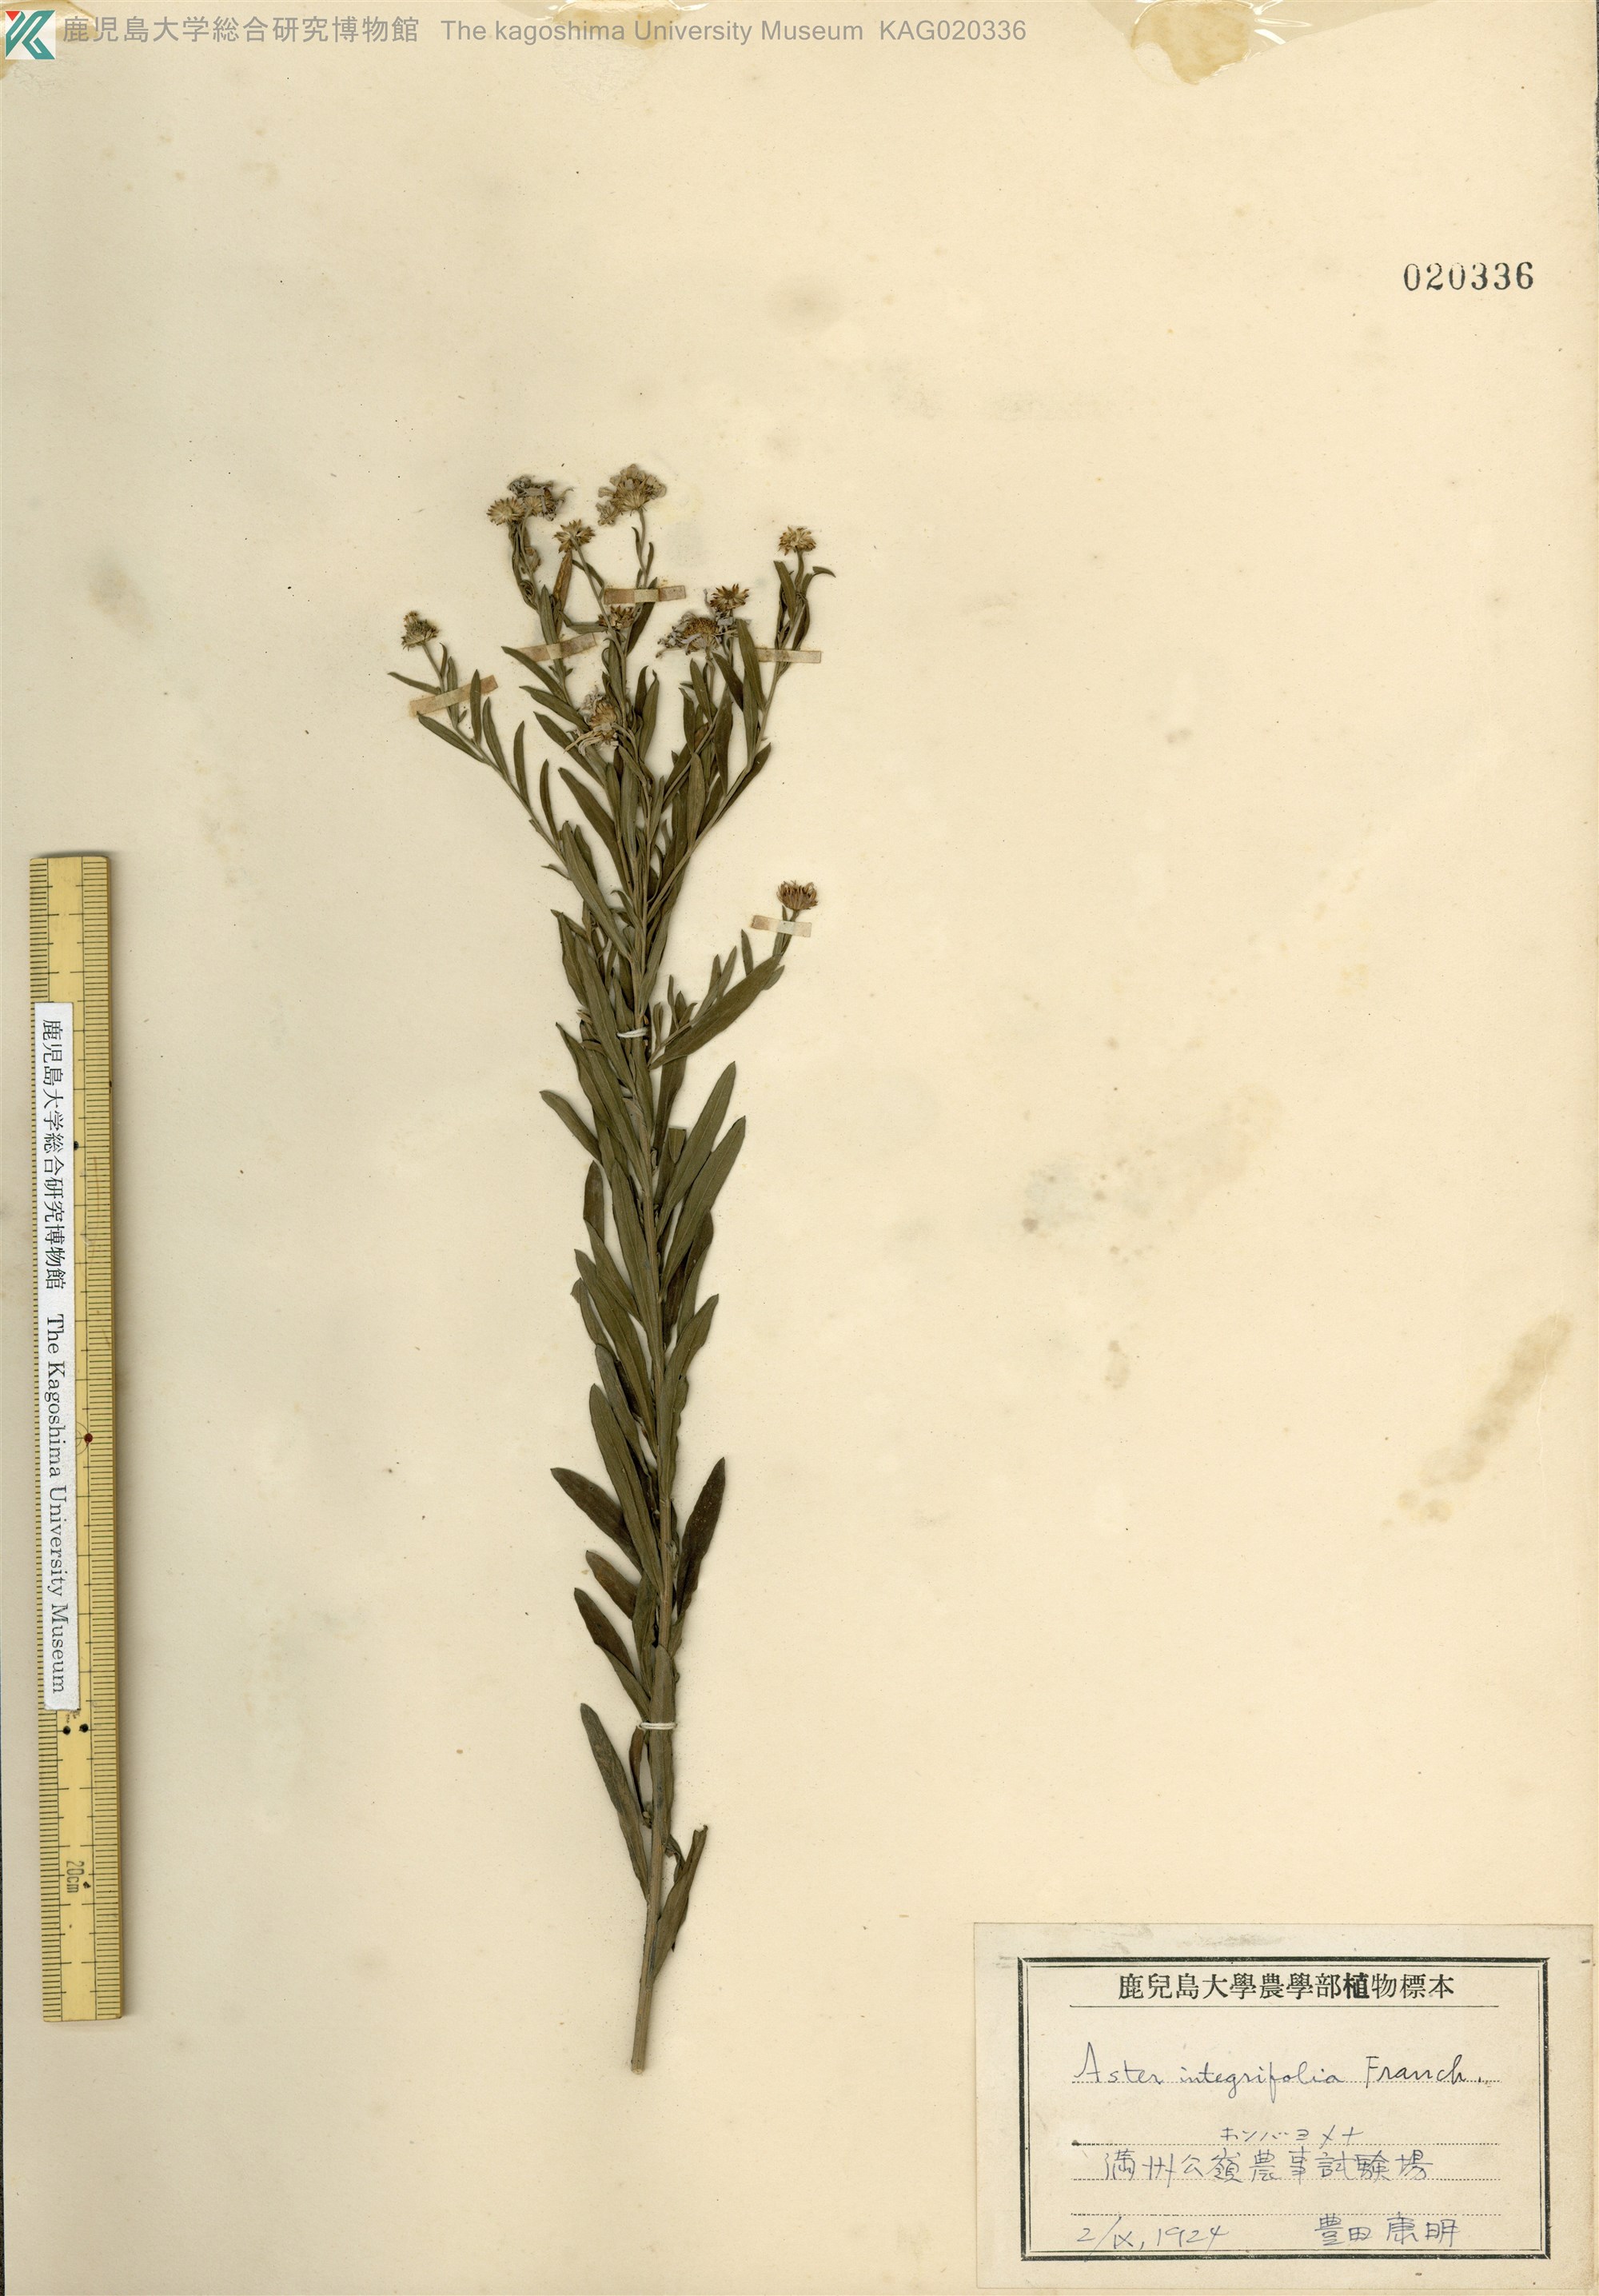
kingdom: Plantae
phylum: Tracheophyta
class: Magnoliopsida
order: Asterales
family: Asteraceae
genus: Kalimeris
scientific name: Kalimeris integrifolia
